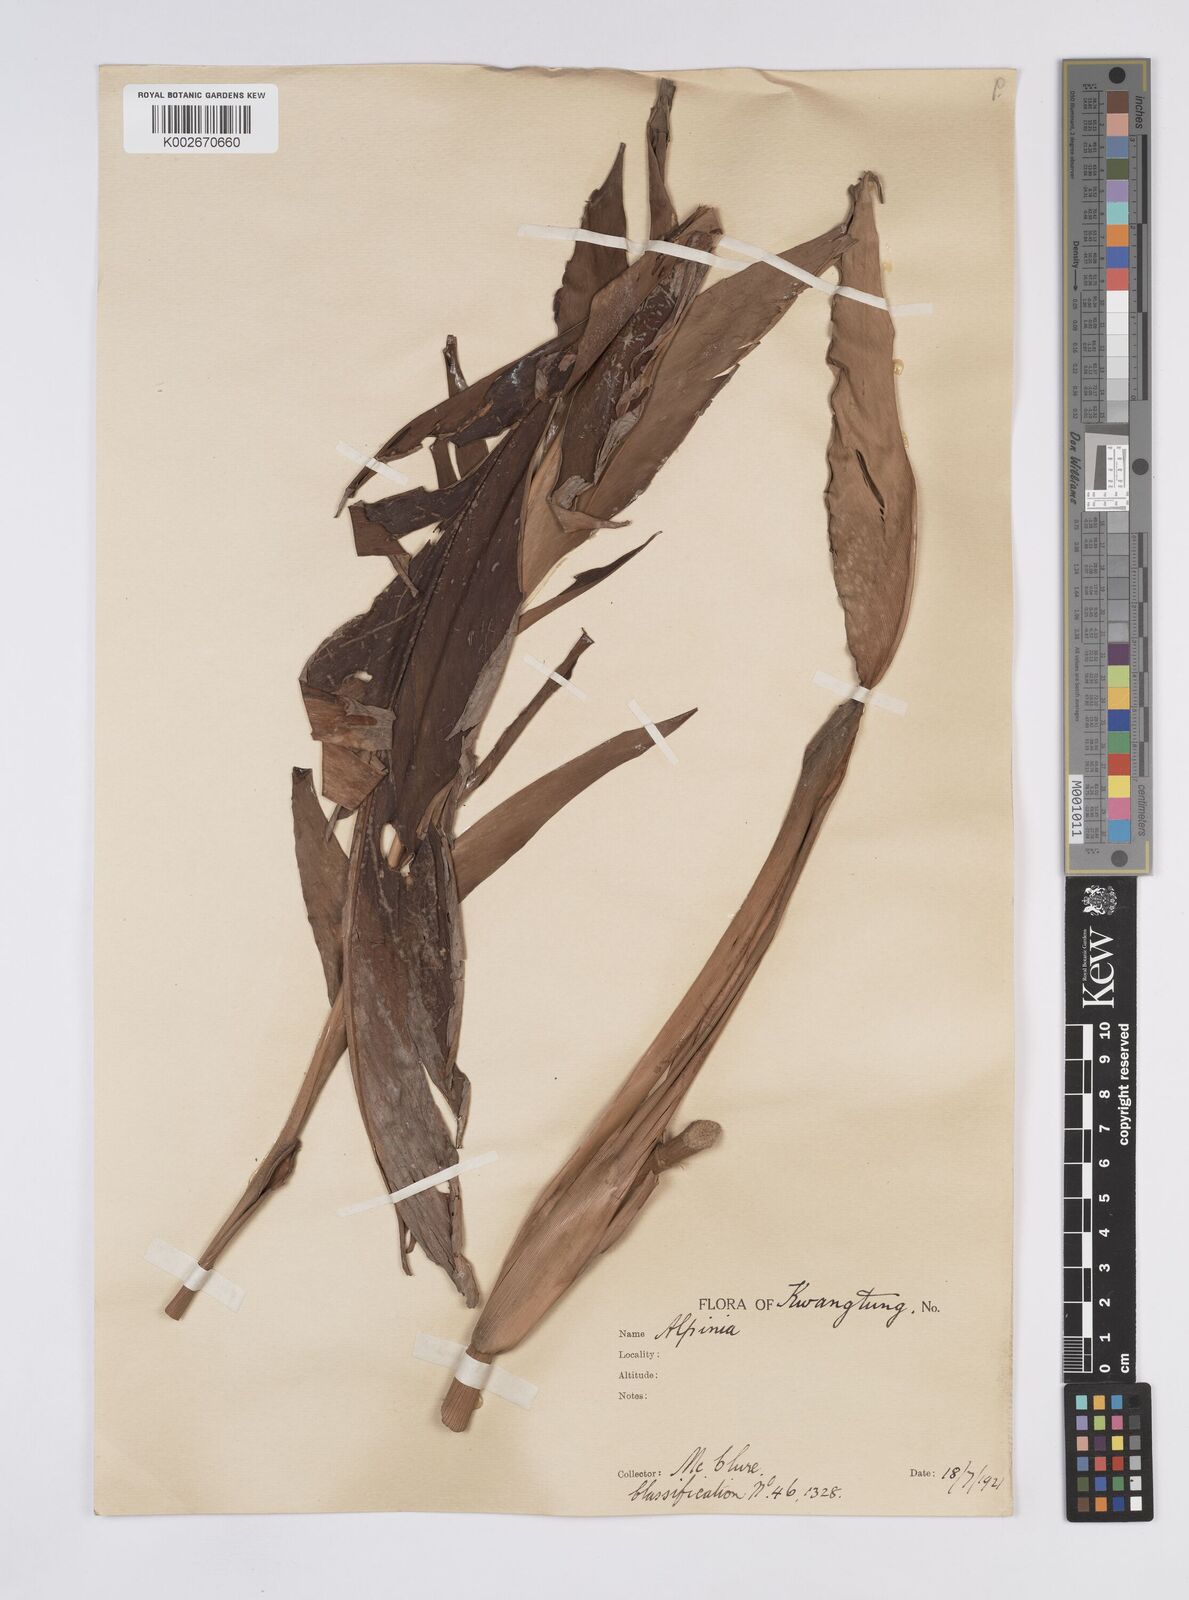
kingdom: Plantae
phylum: Tracheophyta
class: Liliopsida
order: Zingiberales
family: Zingiberaceae
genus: Alpinia
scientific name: Alpinia
